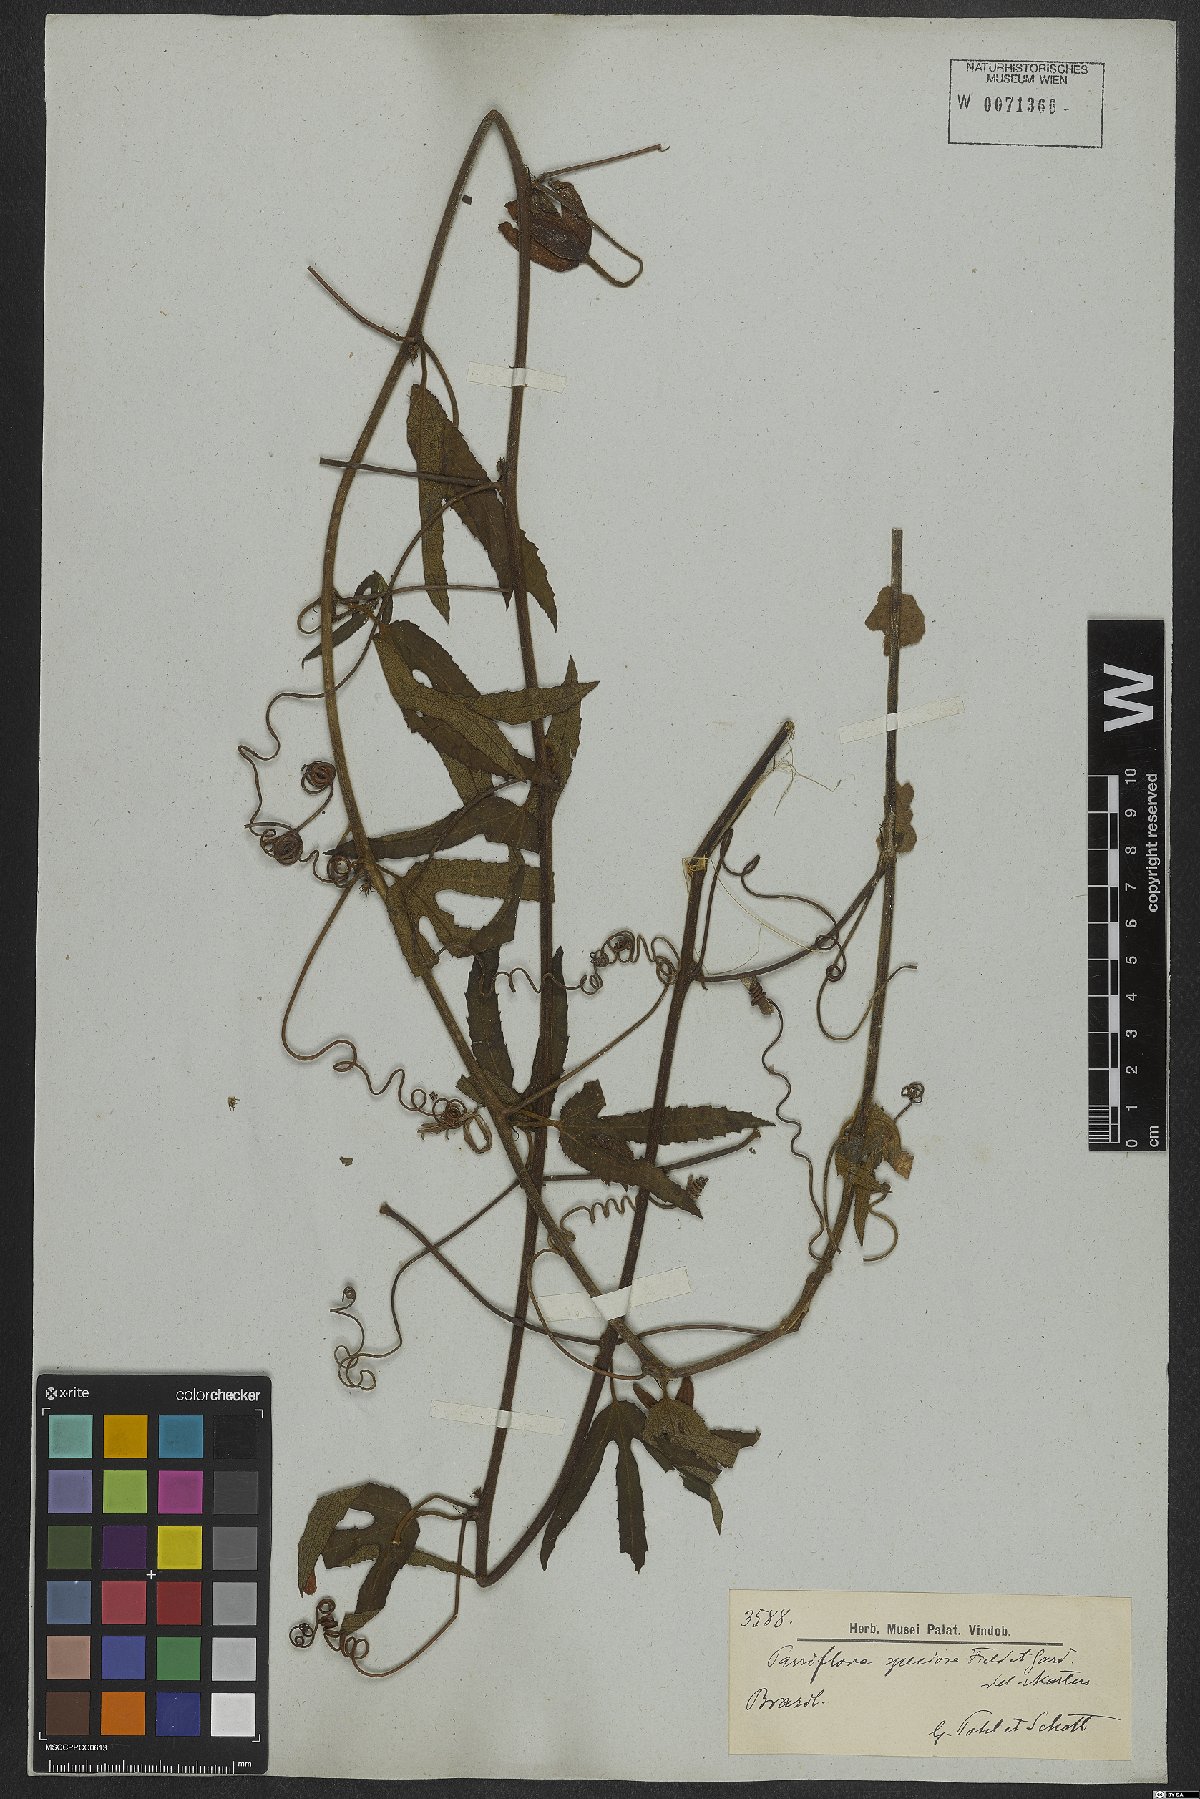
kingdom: Plantae
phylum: Tracheophyta
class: Magnoliopsida
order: Malpighiales
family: Passifloraceae
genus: Passiflora
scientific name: Passiflora speciosa
